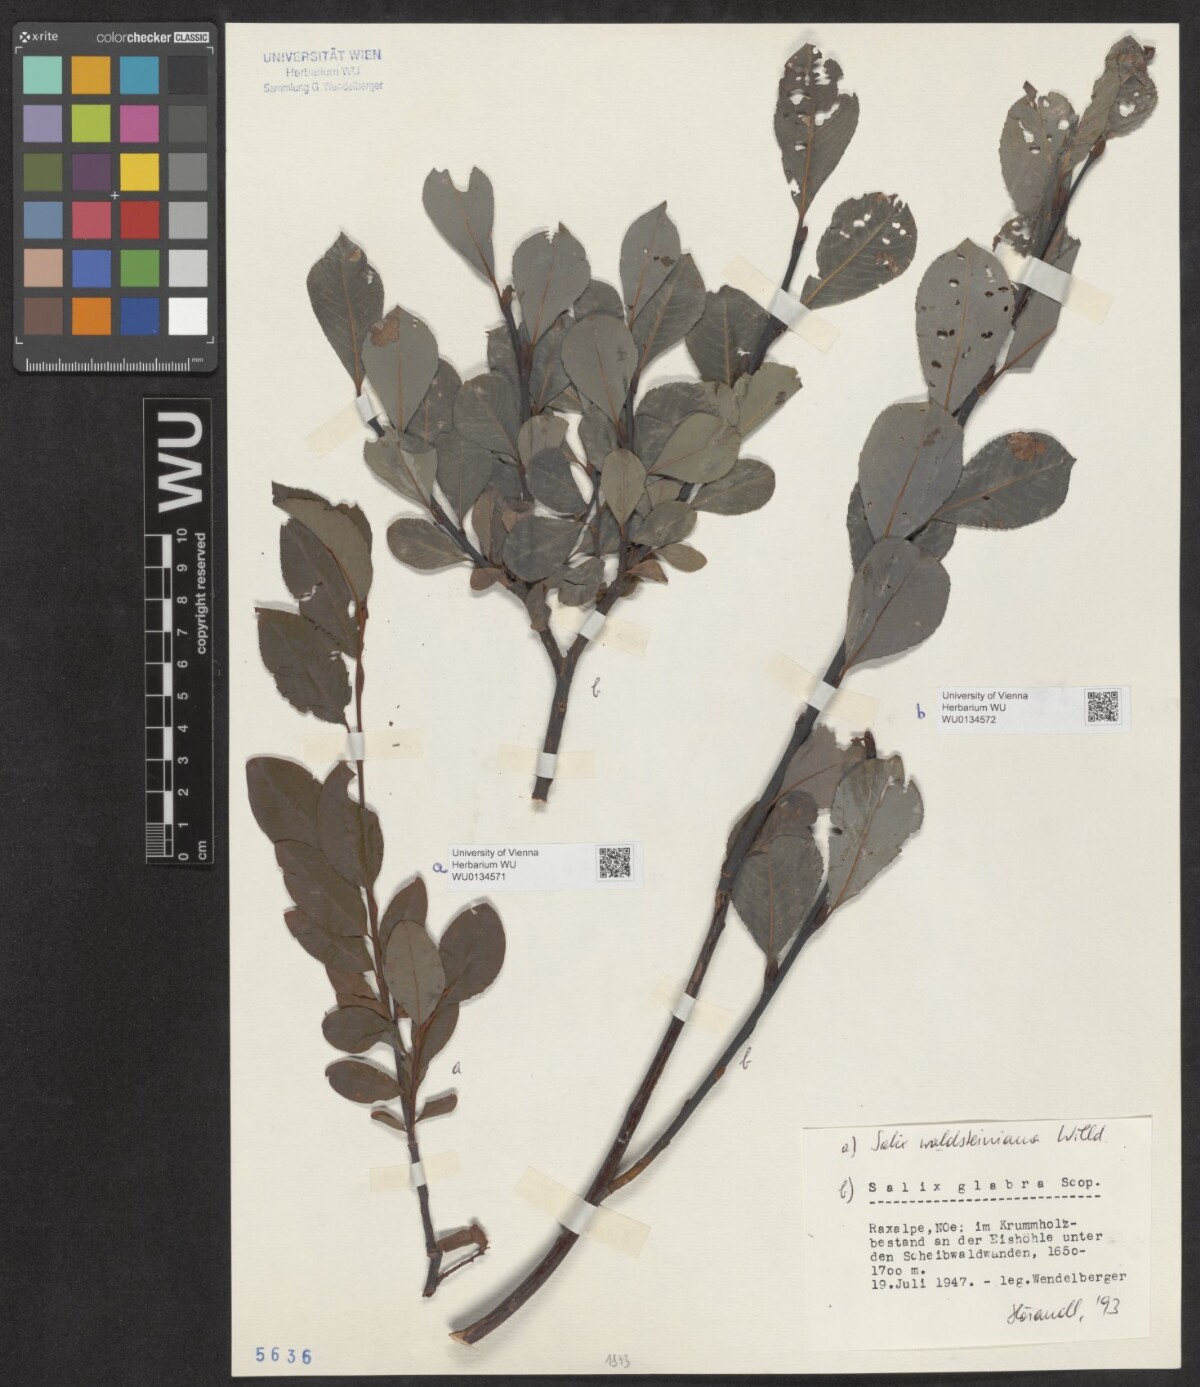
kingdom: Plantae
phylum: Tracheophyta
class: Magnoliopsida
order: Malpighiales
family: Salicaceae
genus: Salix
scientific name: Salix glabra
